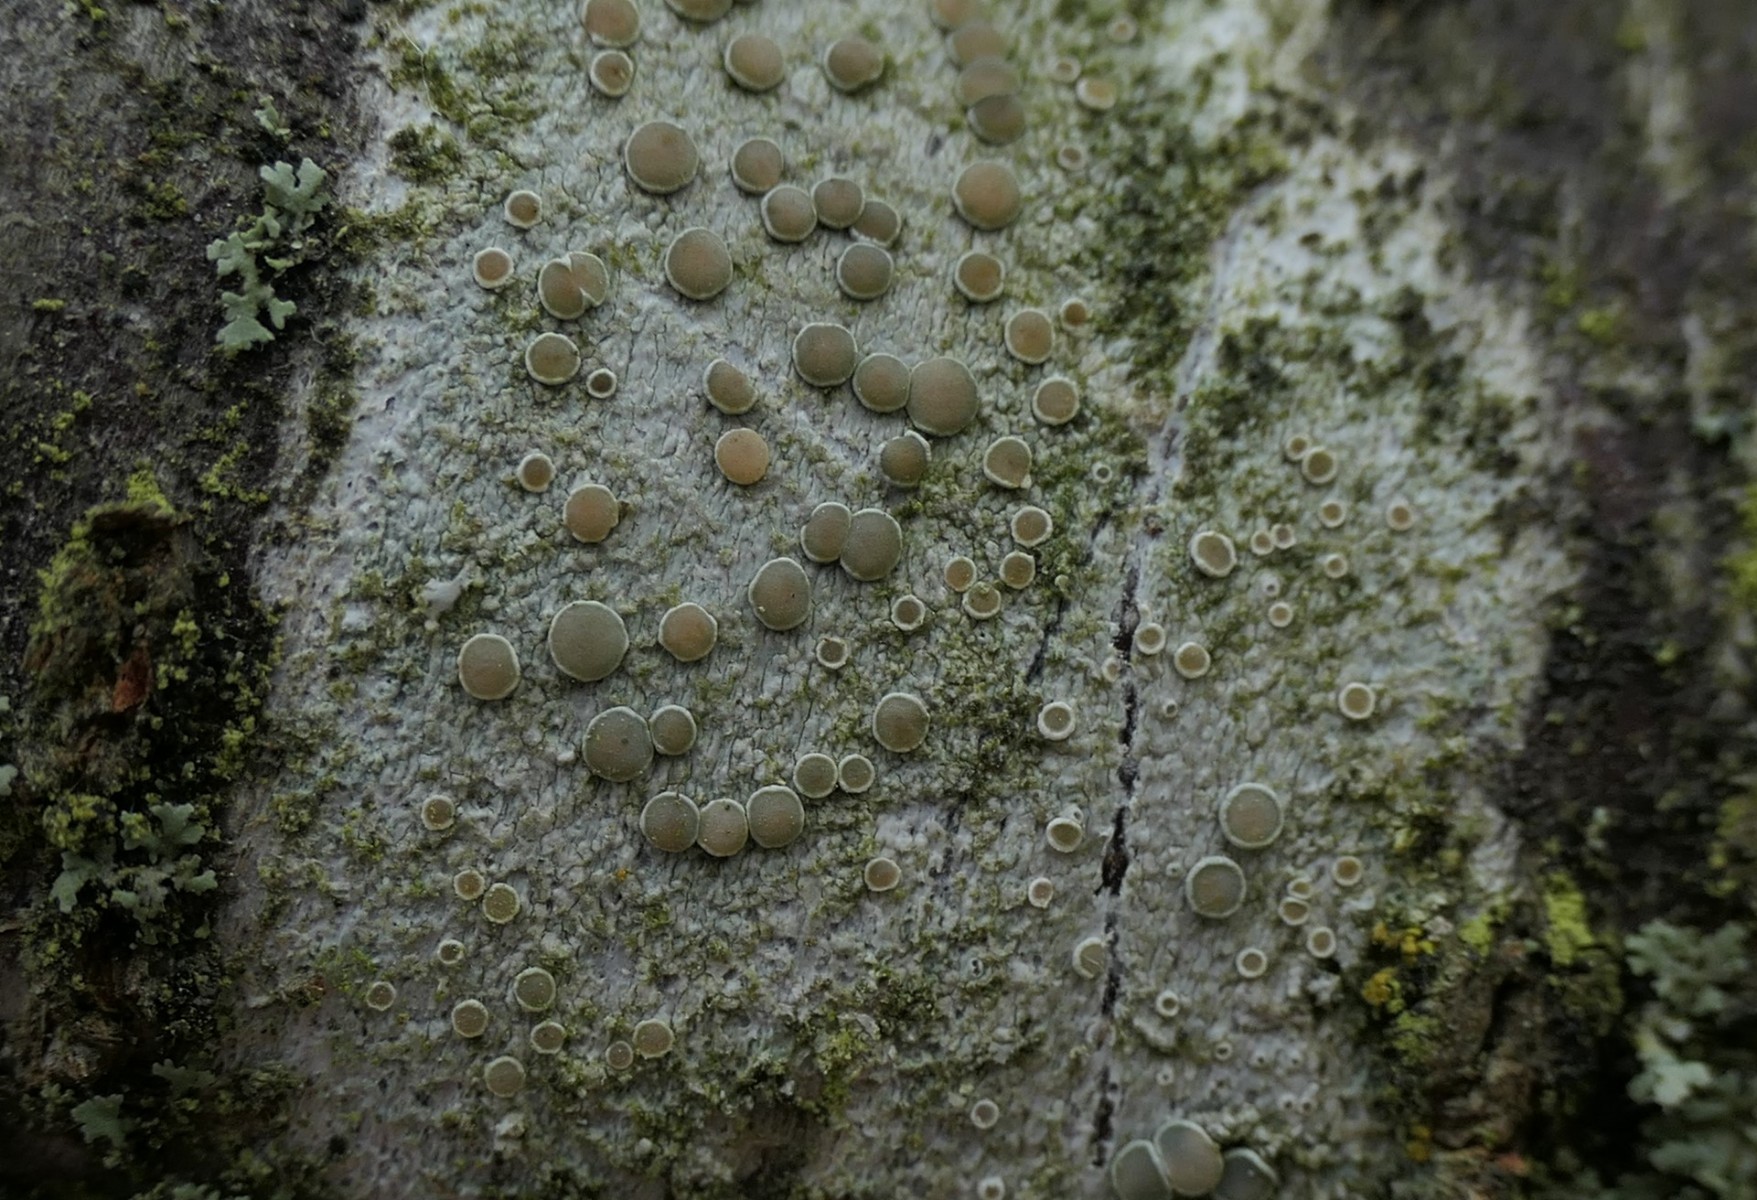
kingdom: Fungi
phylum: Ascomycota
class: Lecanoromycetes
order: Lecanorales
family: Lecanoraceae
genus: Lecanora
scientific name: Lecanora chlarotera
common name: brun kantskivelav
